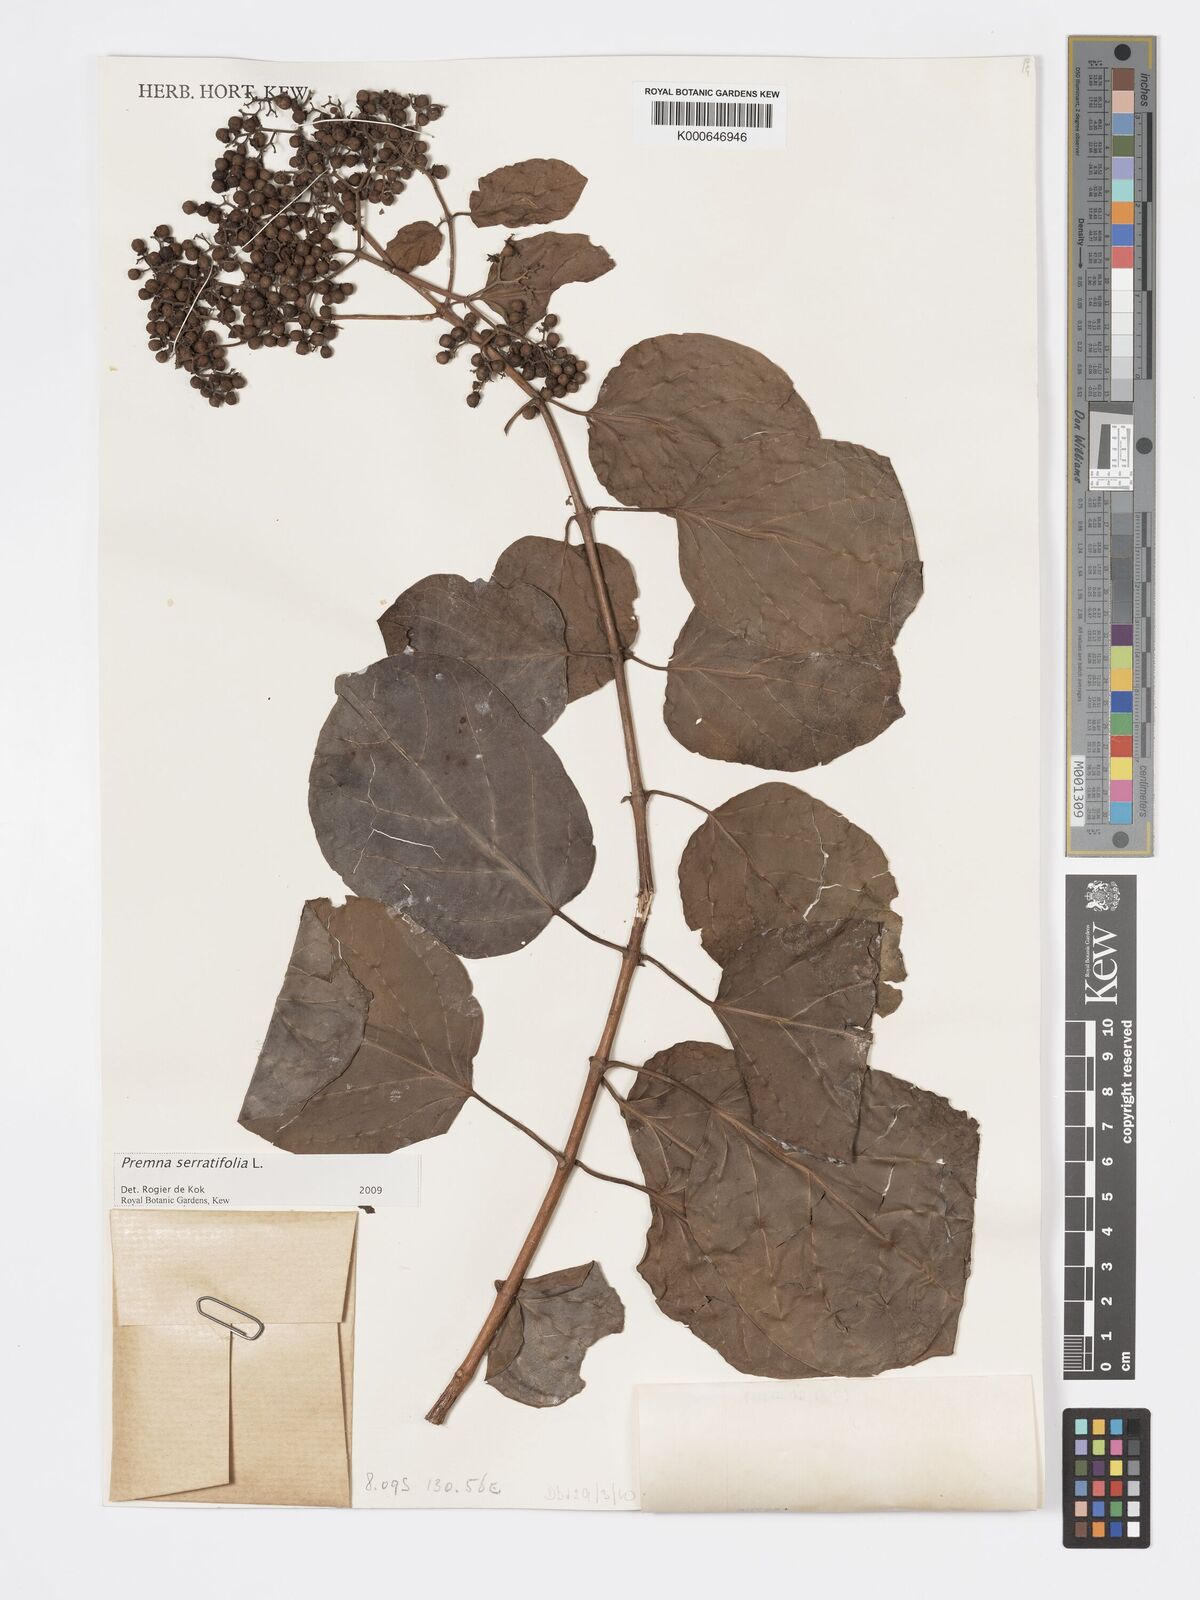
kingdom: Plantae
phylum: Tracheophyta
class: Magnoliopsida
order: Lamiales
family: Lamiaceae
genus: Premna
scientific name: Premna serratifolia
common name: Bastard guelder
